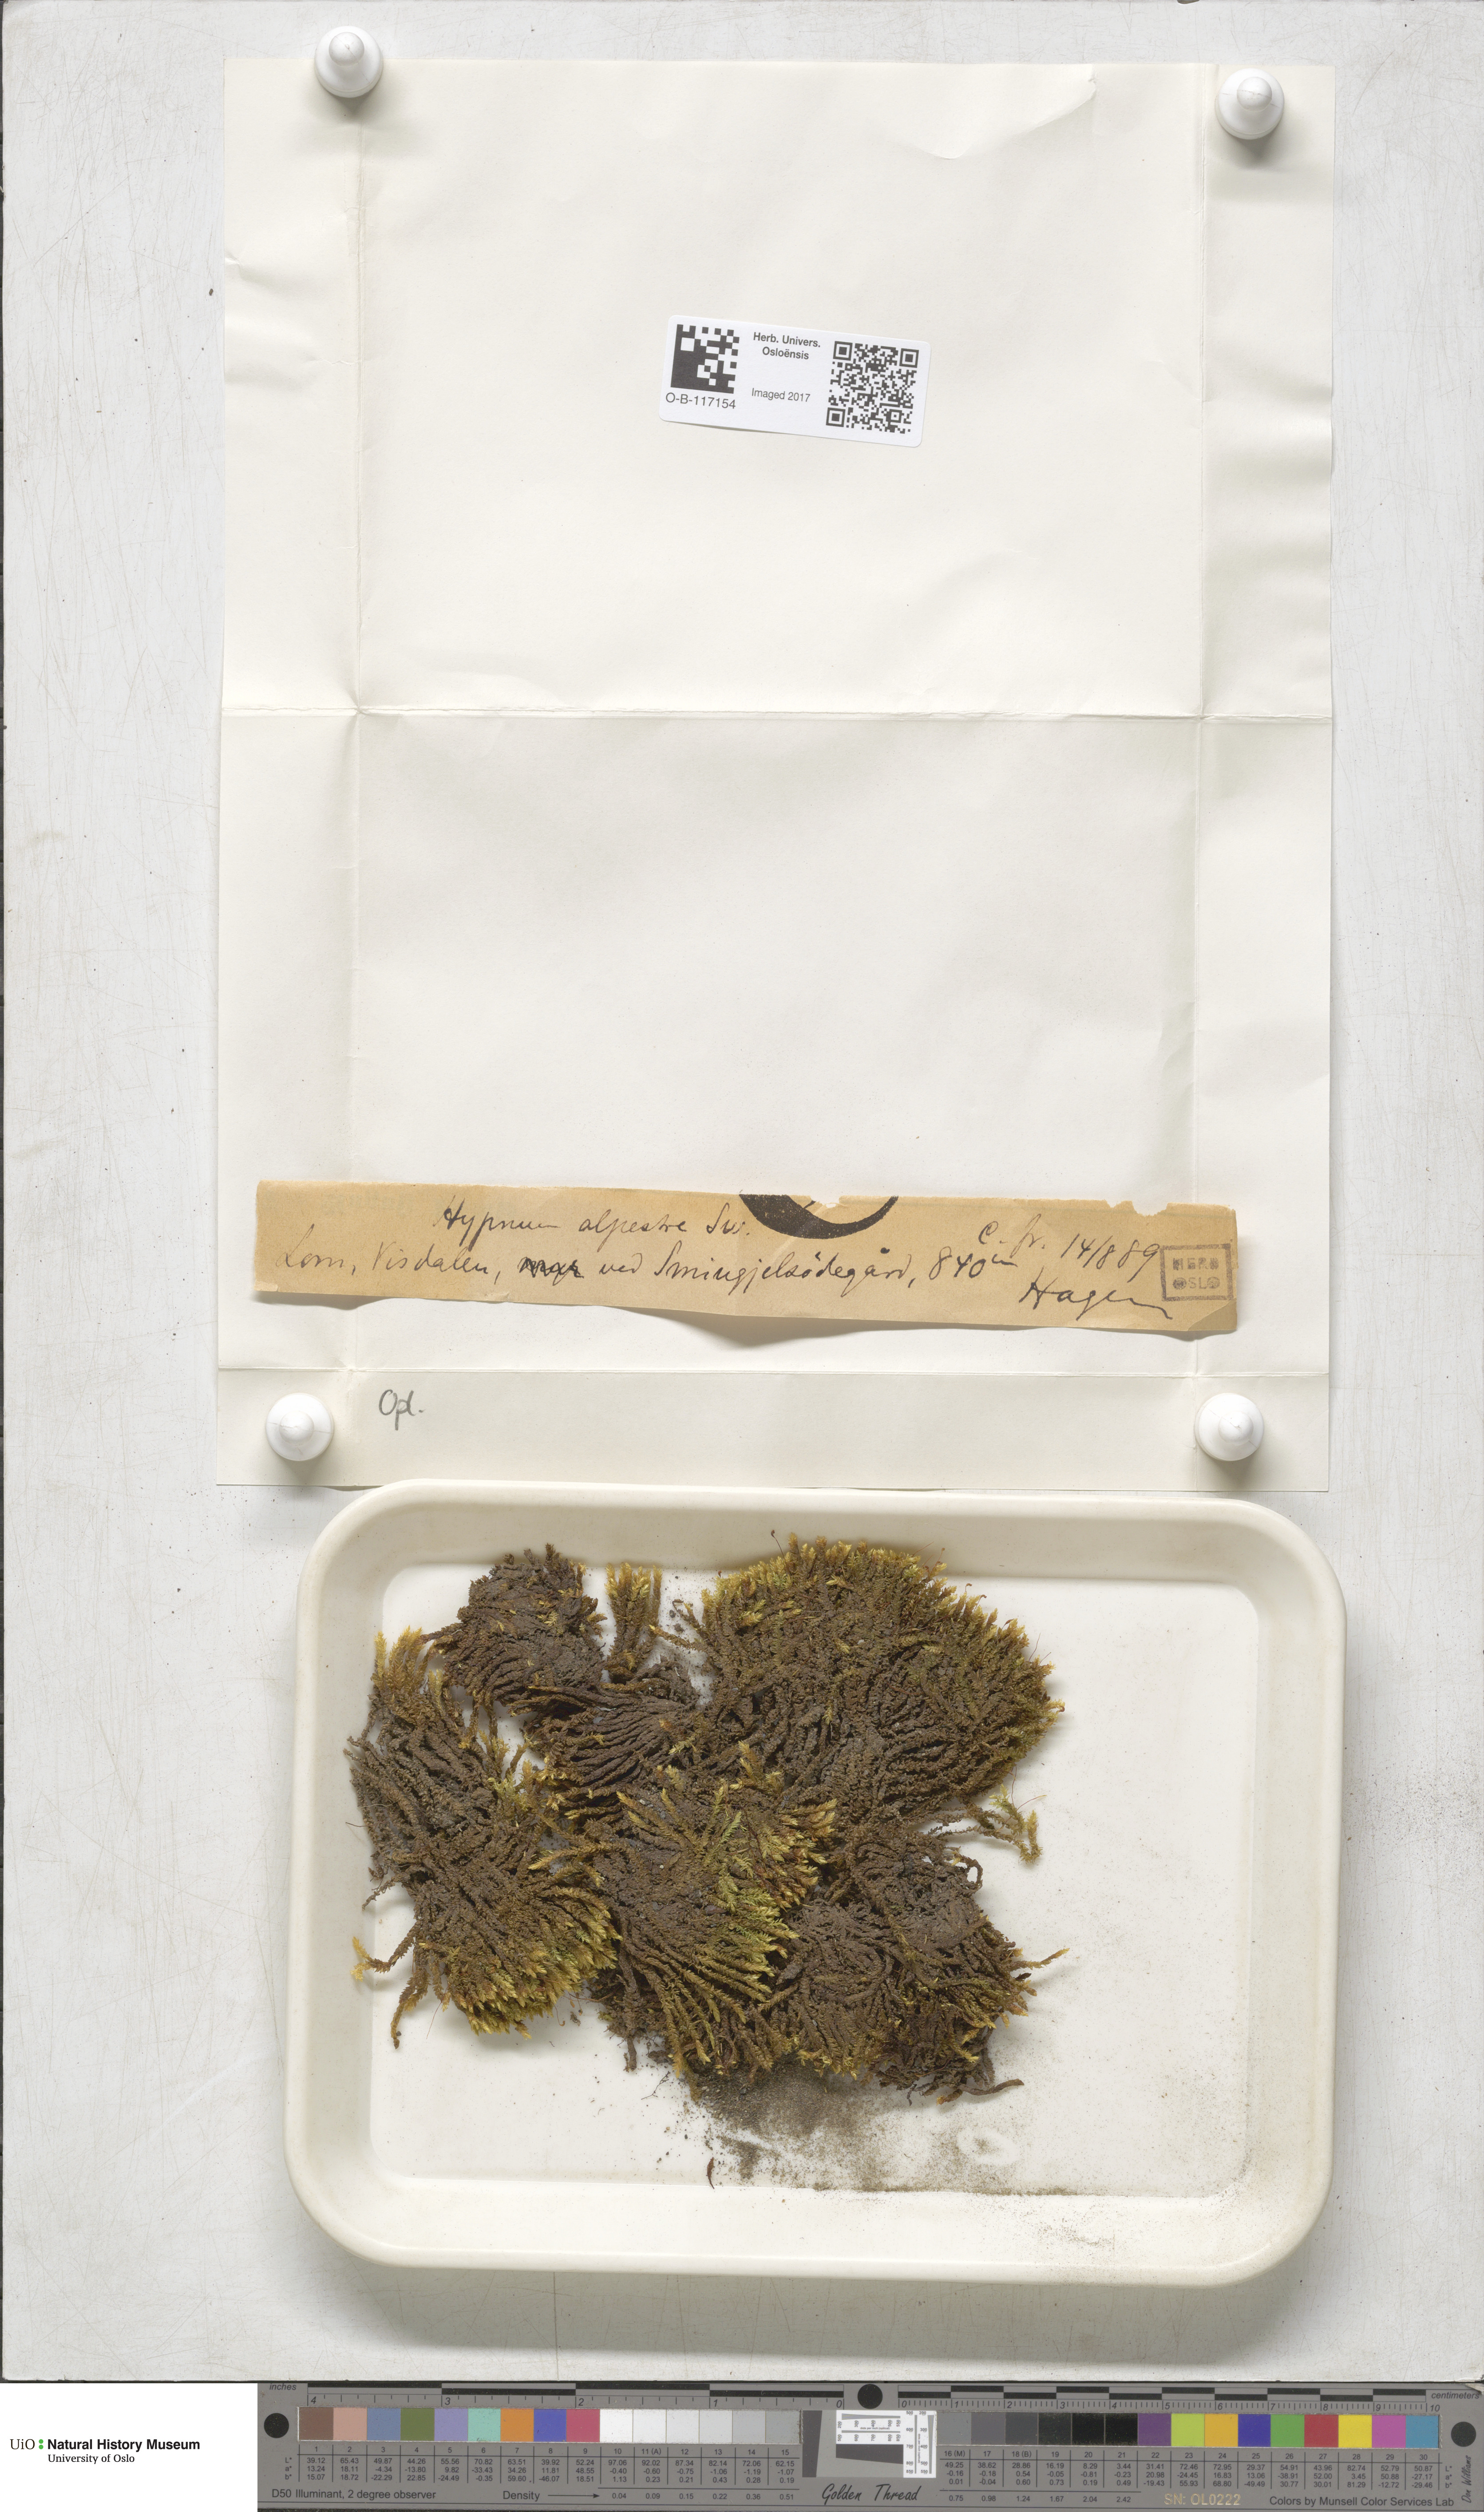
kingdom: Plantae
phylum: Bryophyta
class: Bryopsida
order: Hypnales
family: Amblystegiaceae
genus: Platyhypnum
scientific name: Platyhypnum alpestre
